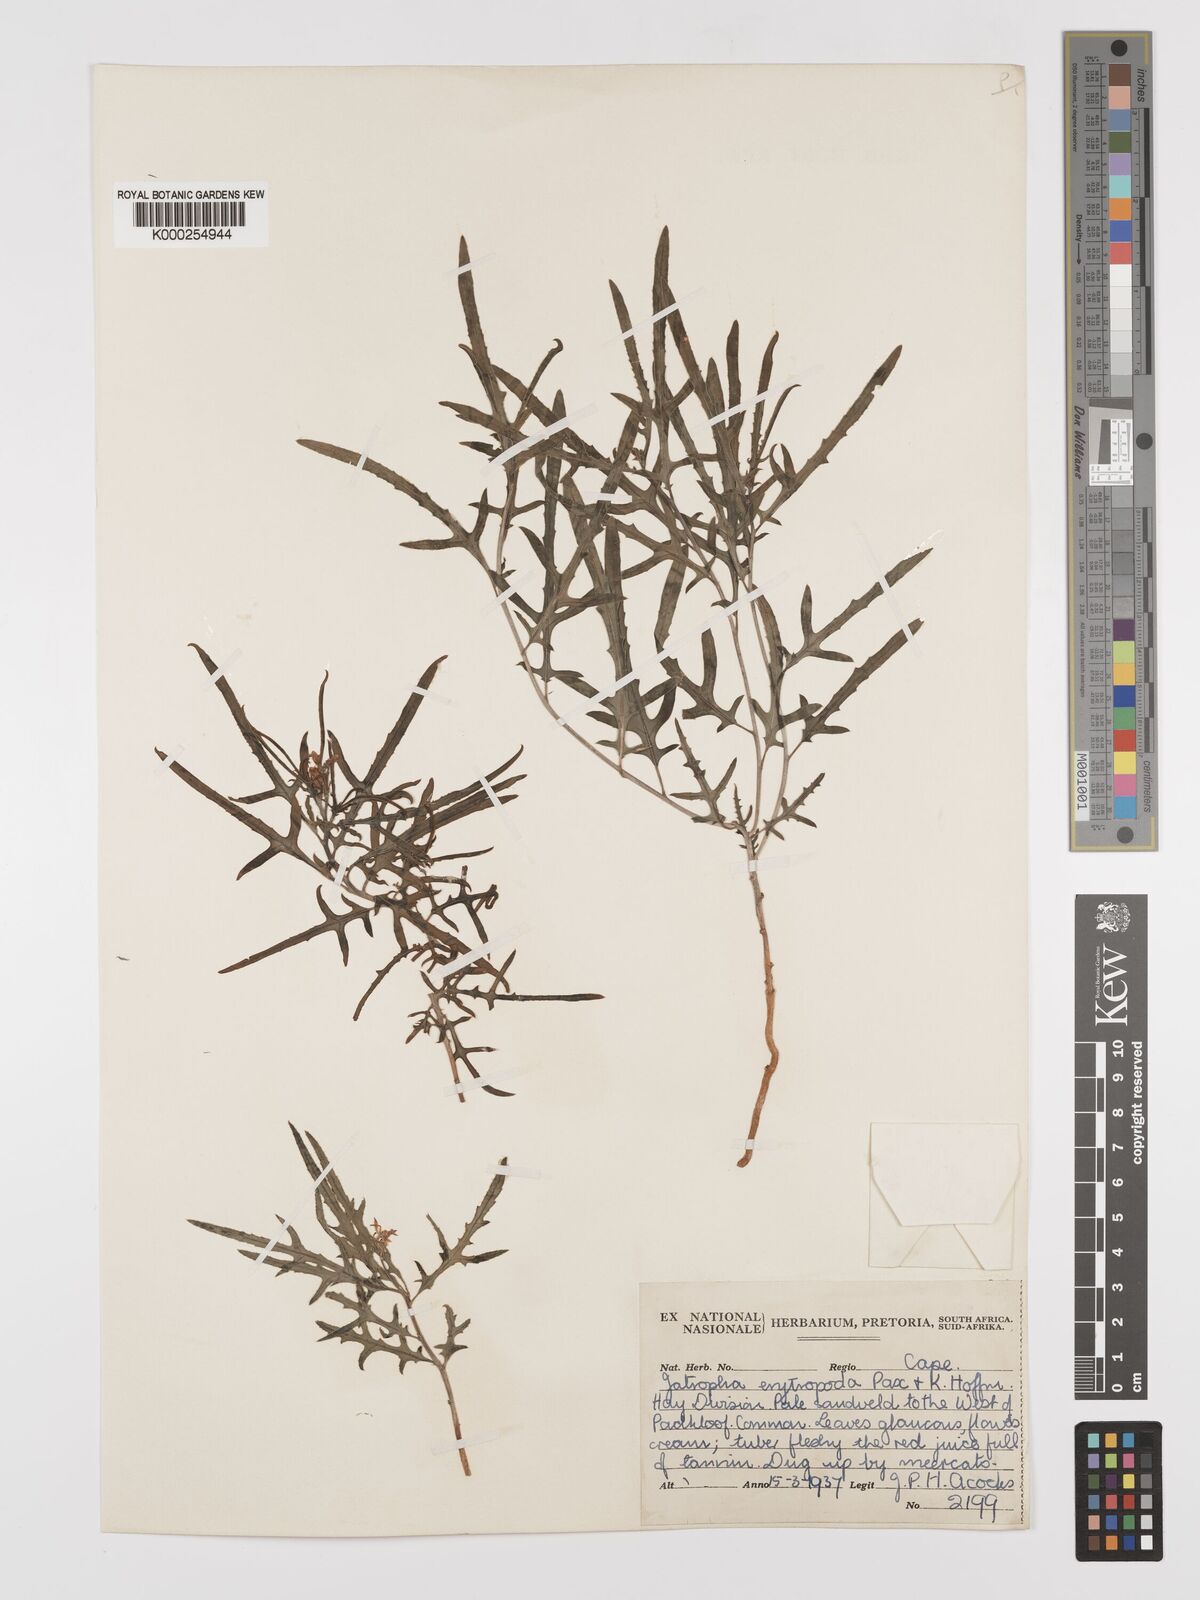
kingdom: Plantae
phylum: Tracheophyta
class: Magnoliopsida
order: Malpighiales
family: Euphorbiaceae
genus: Jatropha
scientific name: Jatropha erythropoda
